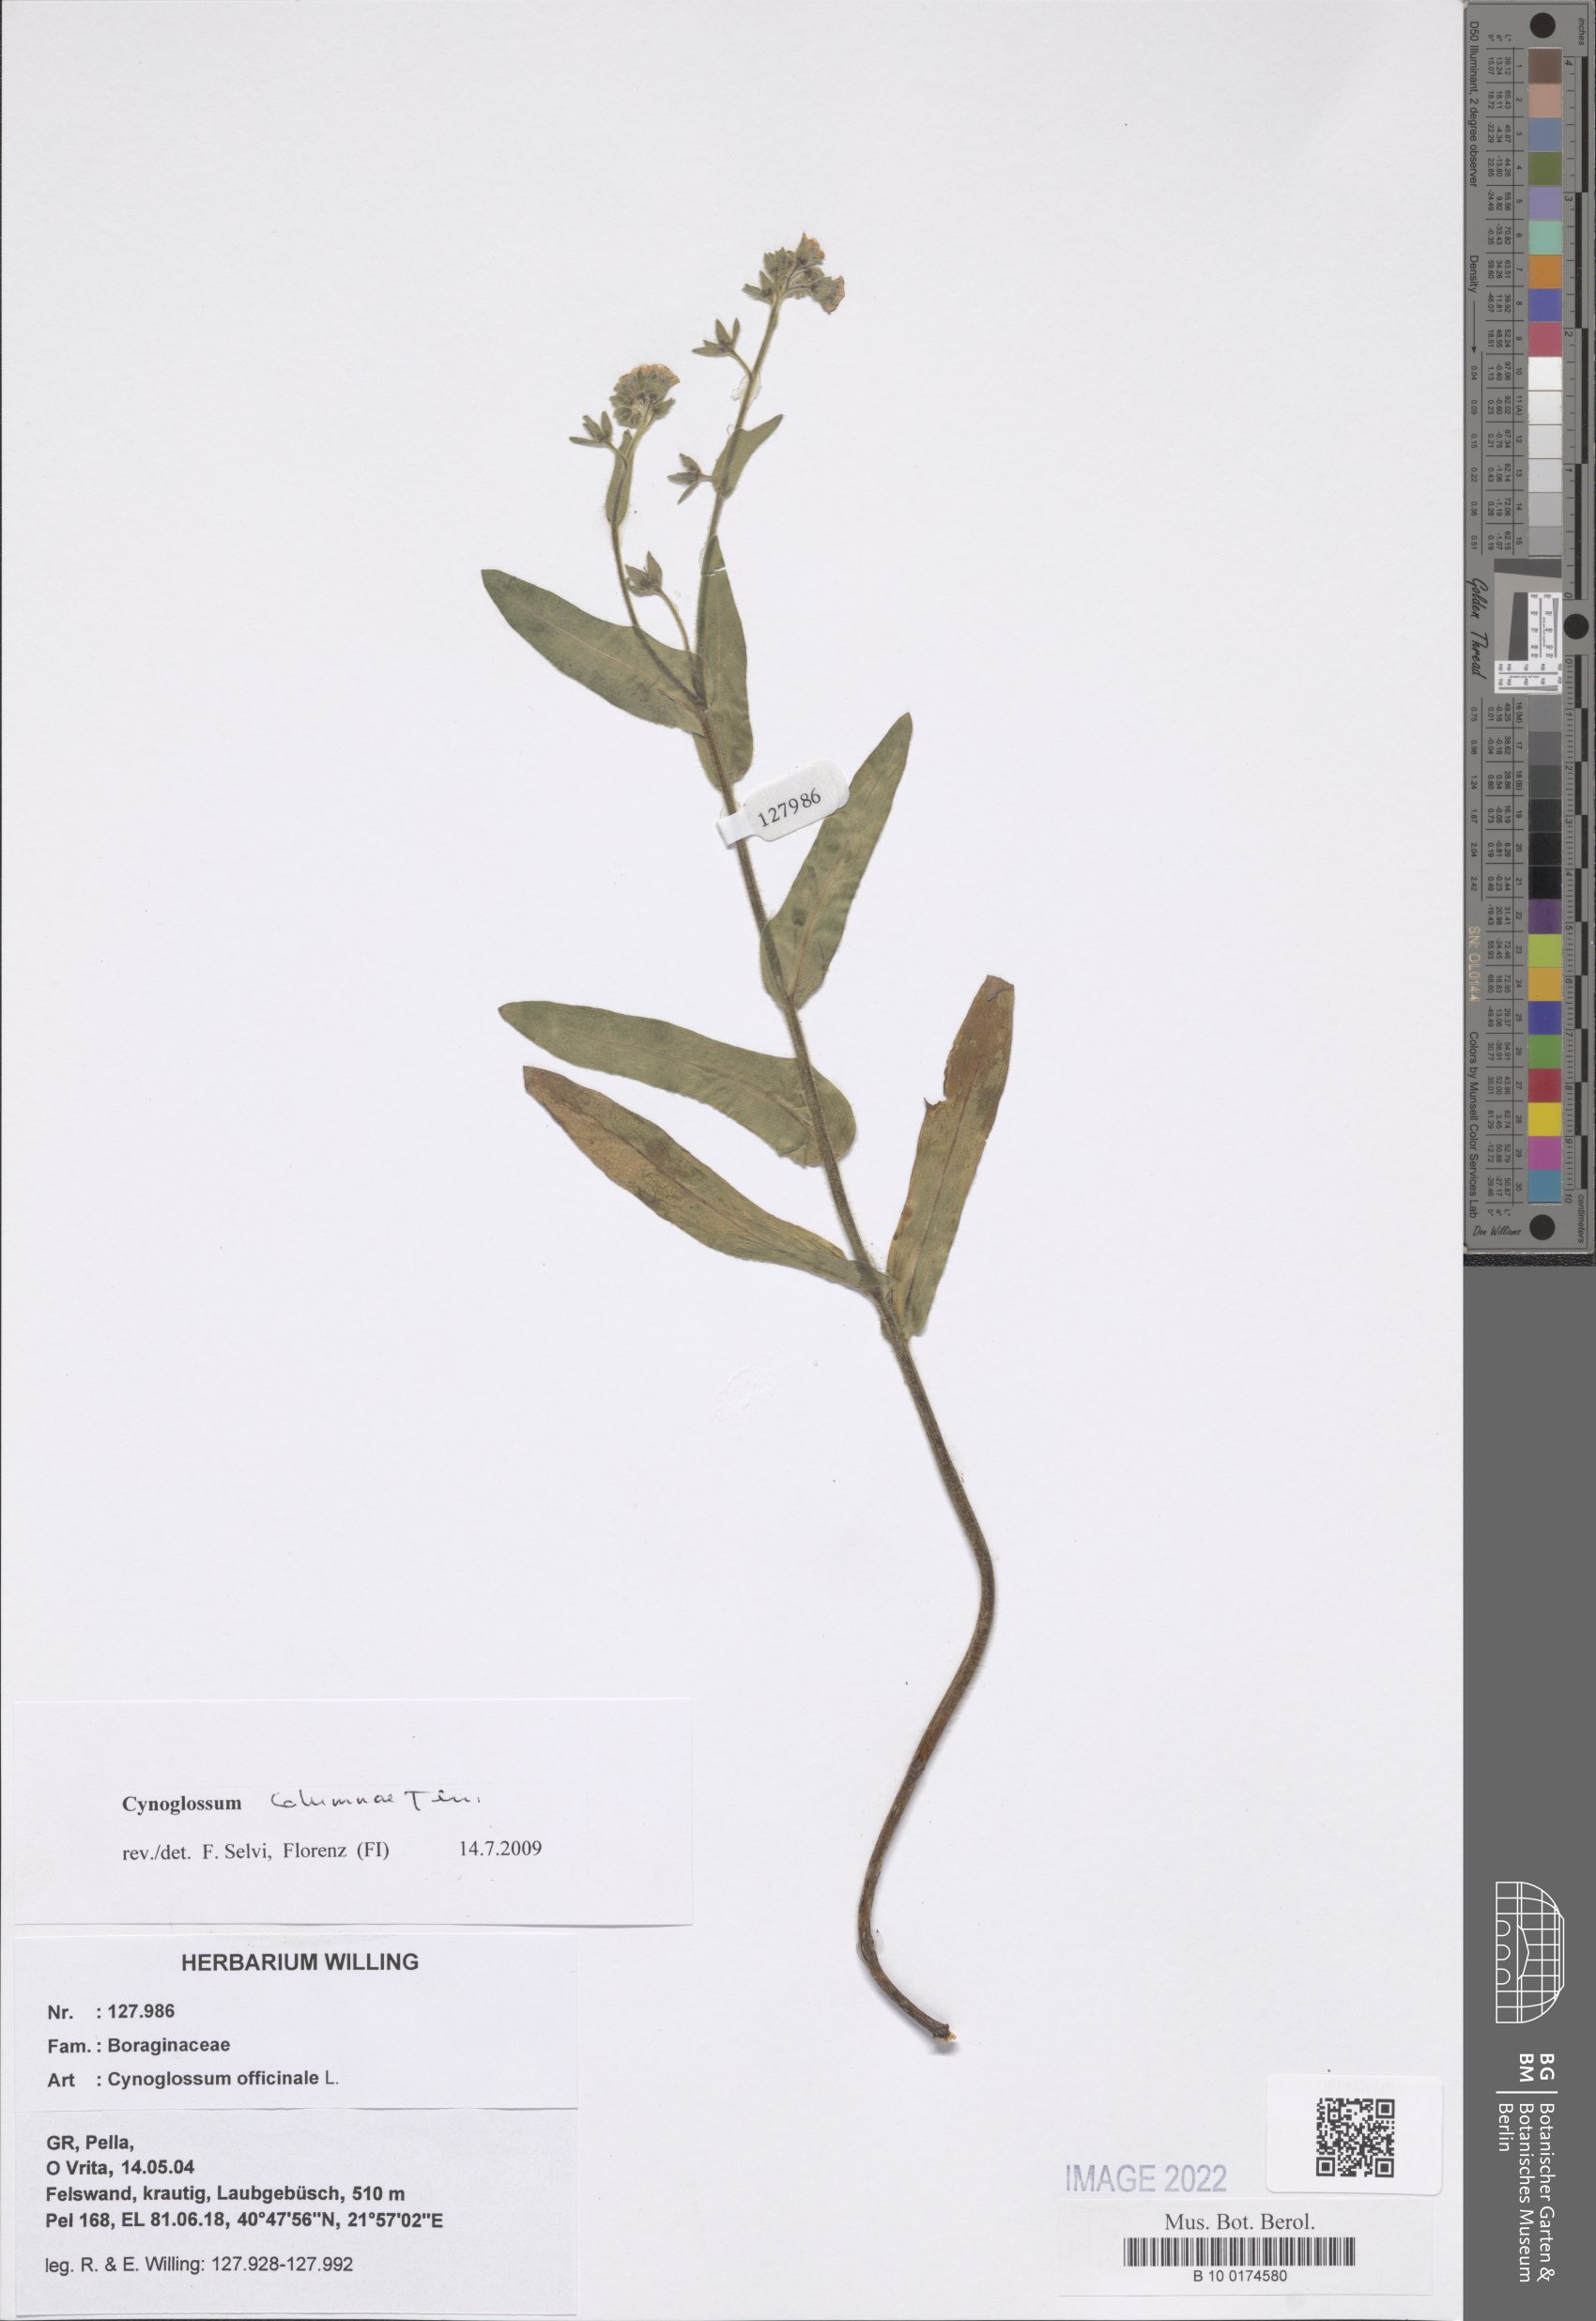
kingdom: Plantae
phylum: Tracheophyta
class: Magnoliopsida
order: Boraginales
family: Boraginaceae
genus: Rindera
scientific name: Rindera columnae
